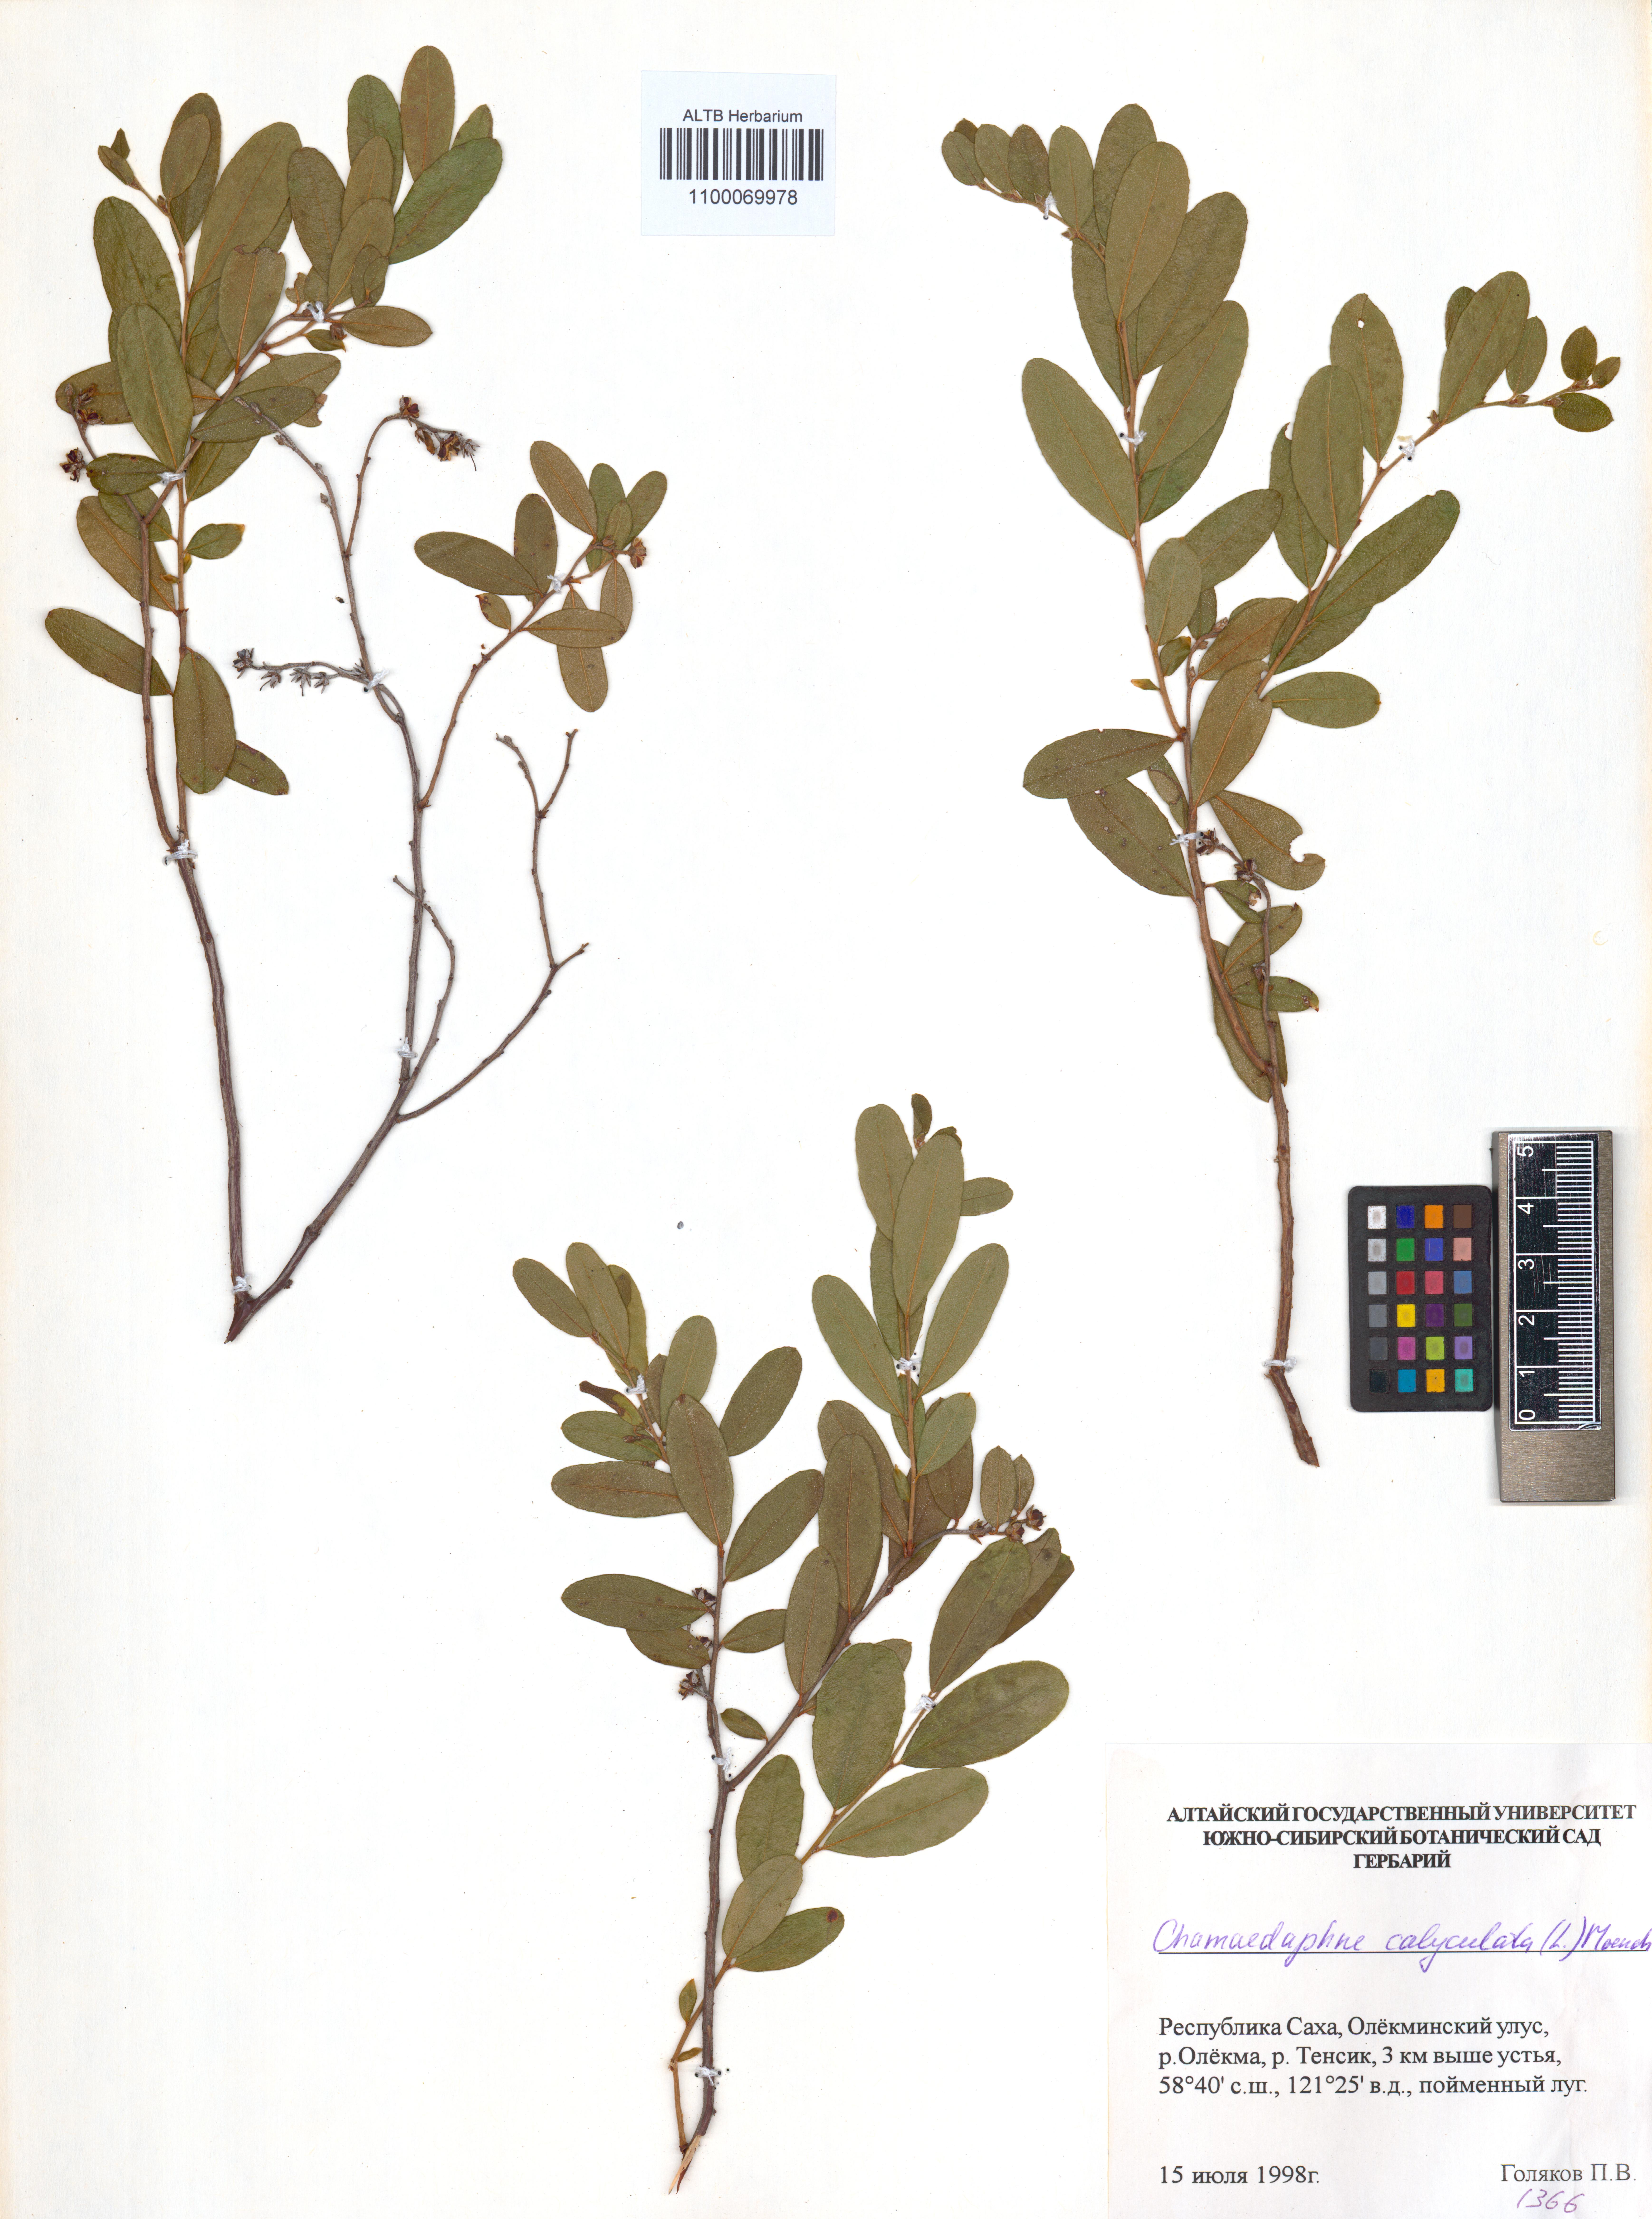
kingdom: Plantae
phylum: Tracheophyta
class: Magnoliopsida
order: Ericales
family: Ericaceae
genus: Chamaedaphne
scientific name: Chamaedaphne calyculata
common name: Leatherleaf
